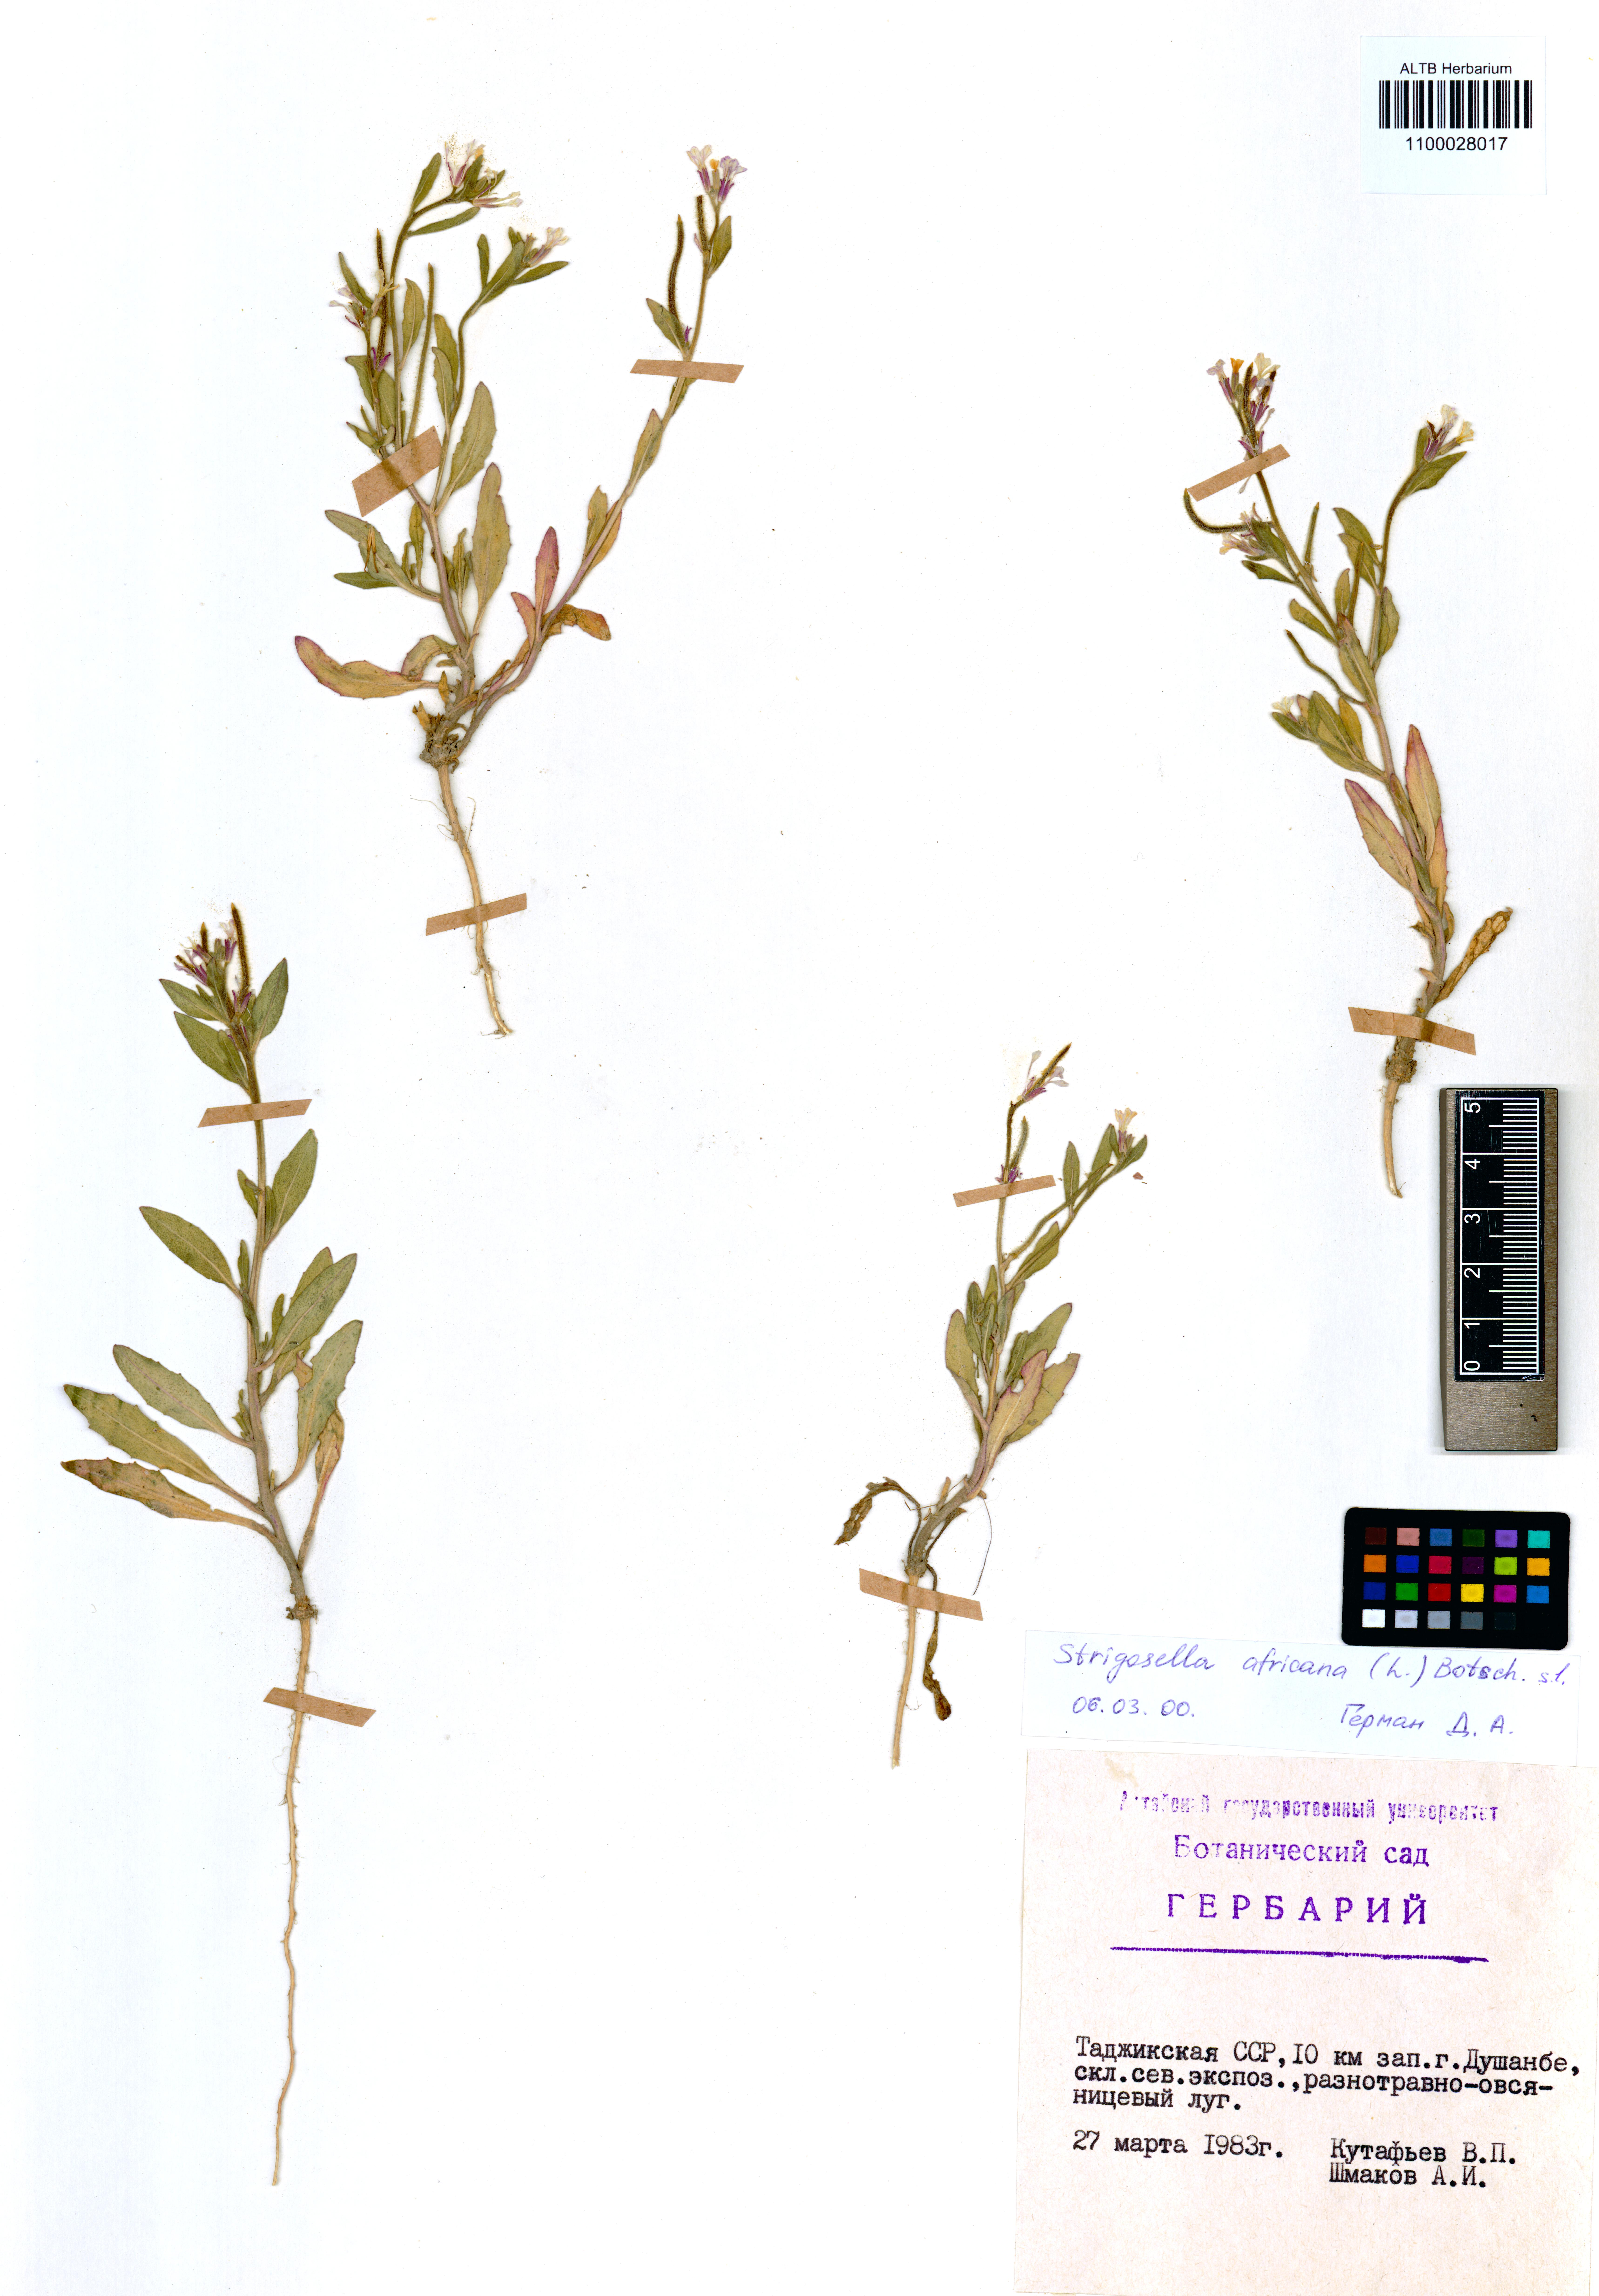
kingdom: Plantae
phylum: Tracheophyta
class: Magnoliopsida
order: Brassicales
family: Brassicaceae
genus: Strigosella
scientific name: Strigosella africana
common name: African mustard
